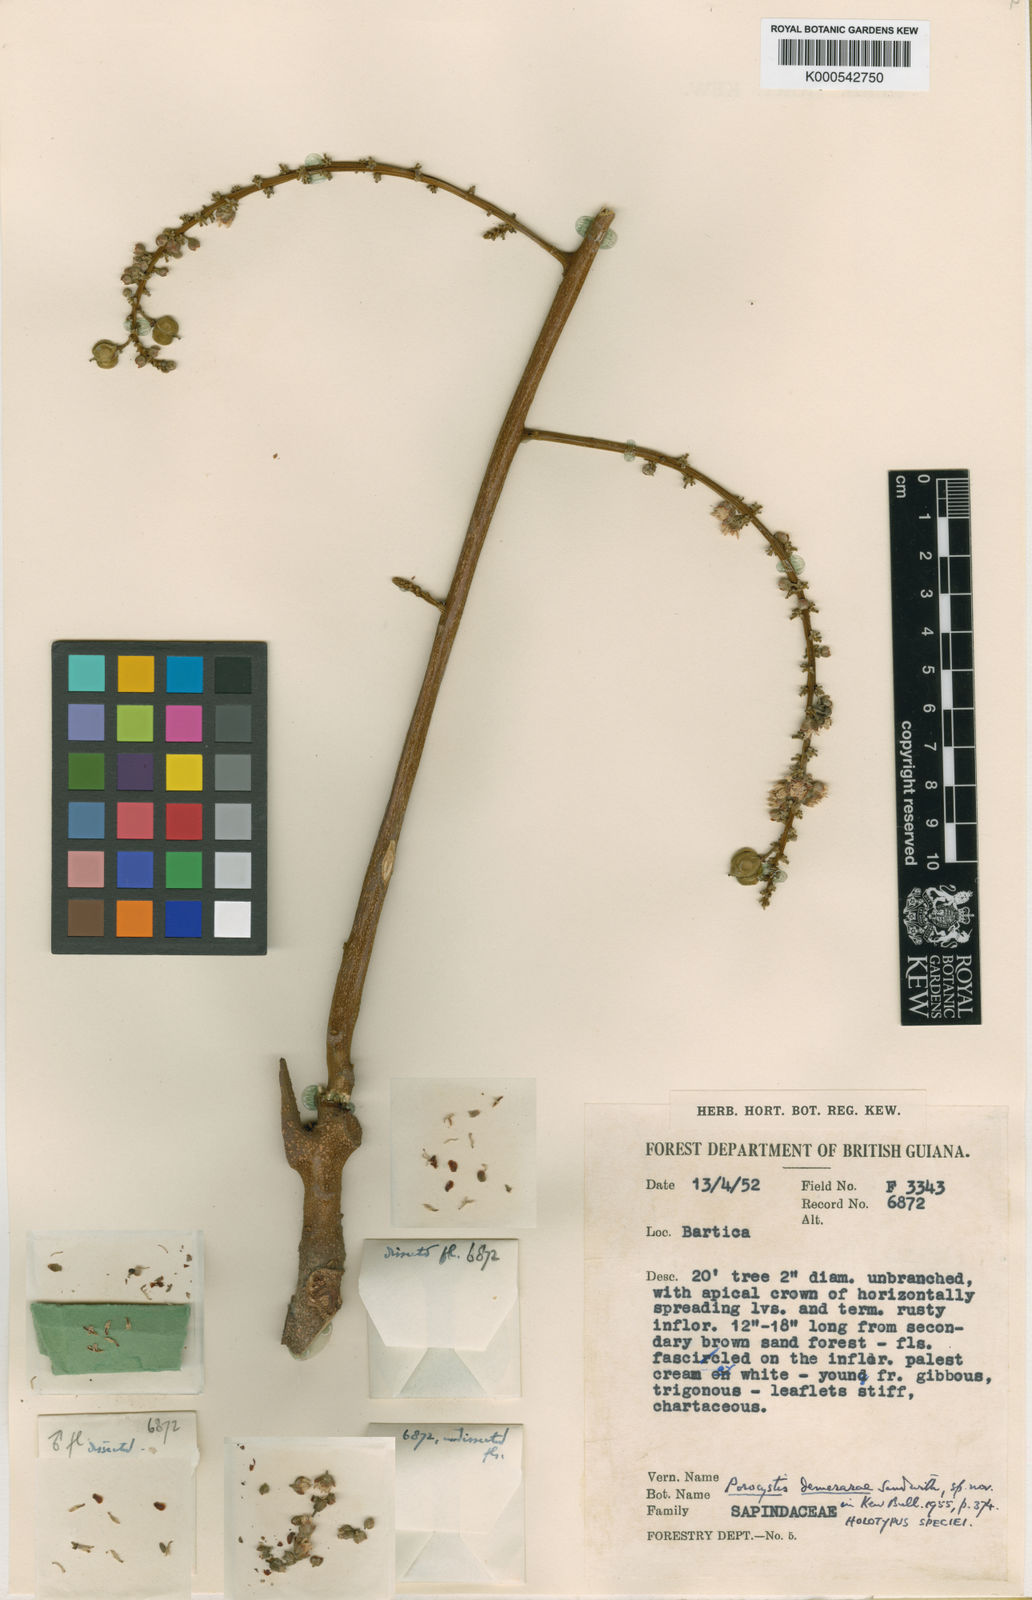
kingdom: Plantae
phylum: Tracheophyta
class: Magnoliopsida
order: Sapindales
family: Sapindaceae
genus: Porocystis
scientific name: Porocystis toulicioides
